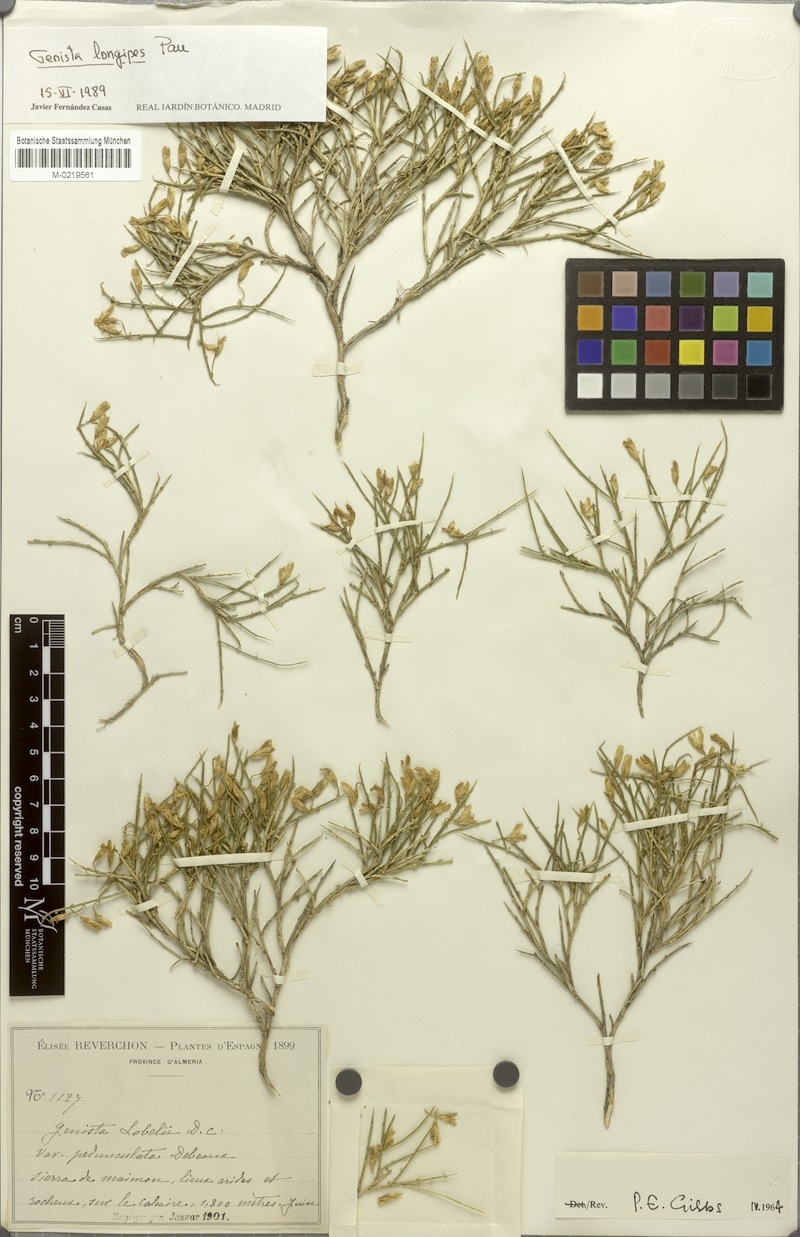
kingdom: Plantae
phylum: Tracheophyta
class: Magnoliopsida
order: Fabales
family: Fabaceae
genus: Genista
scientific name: Genista longipes
